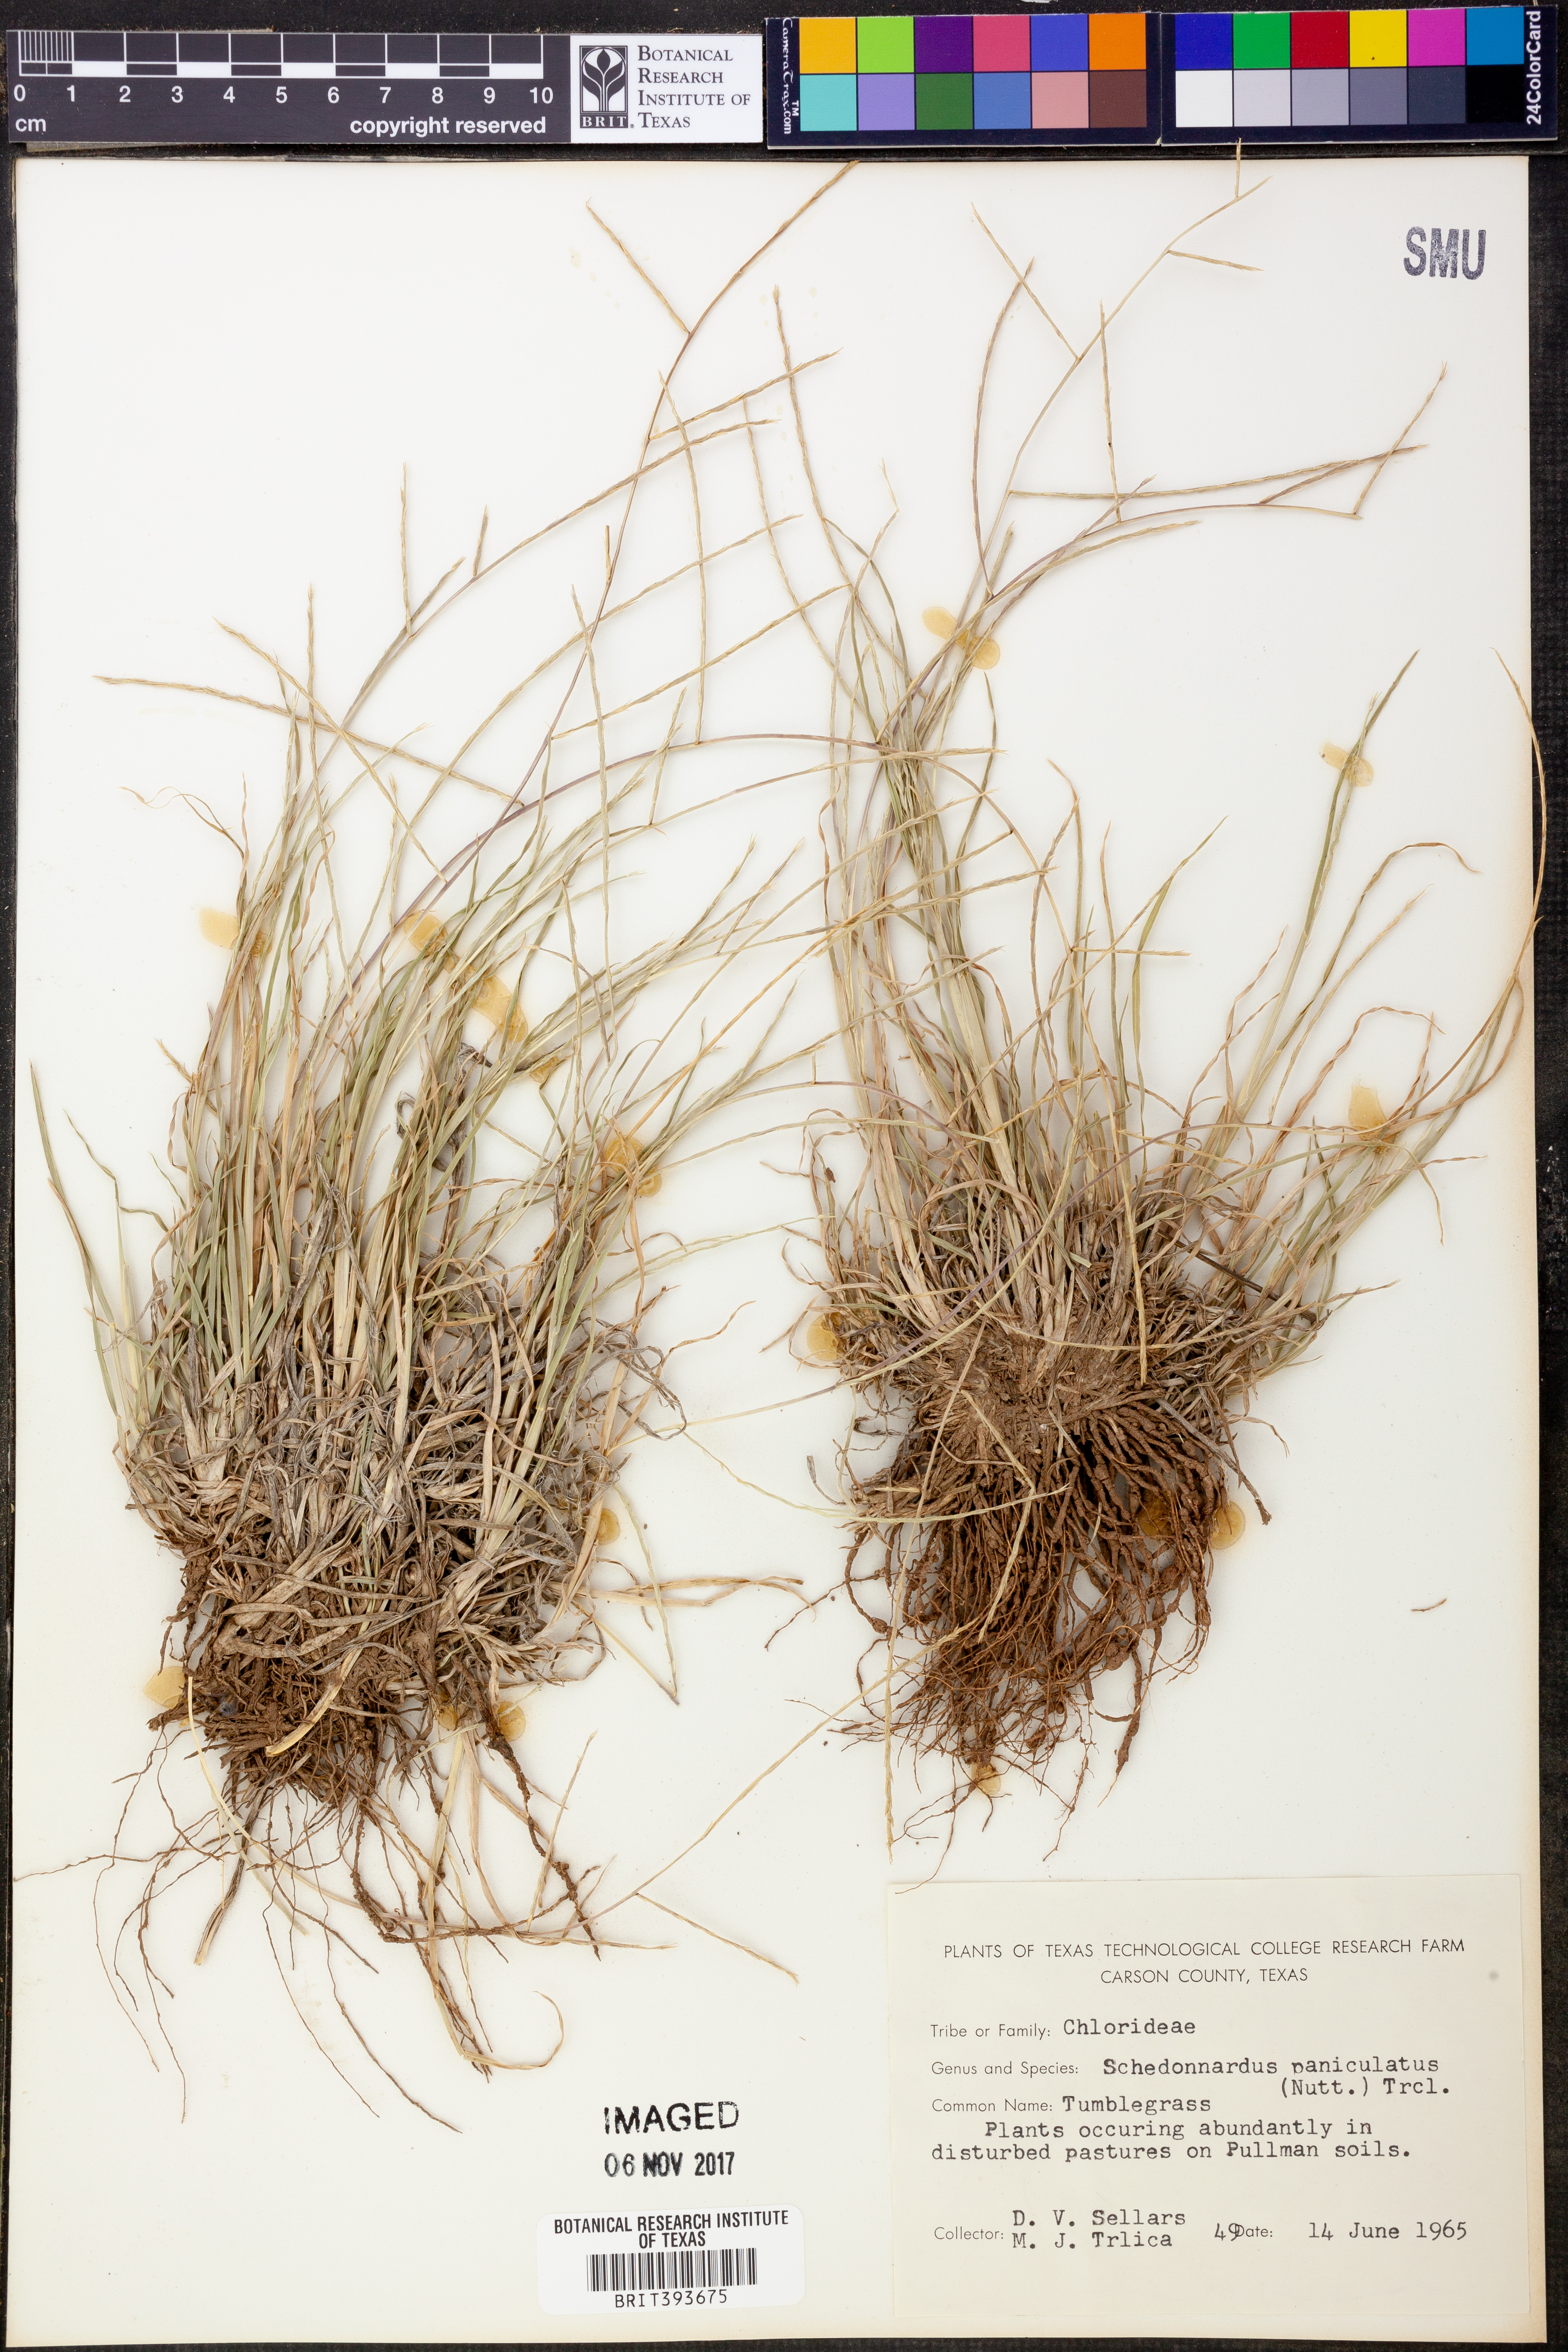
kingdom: Plantae
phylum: Tracheophyta
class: Liliopsida
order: Poales
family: Poaceae
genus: Muhlenbergia
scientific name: Muhlenbergia paniculata
